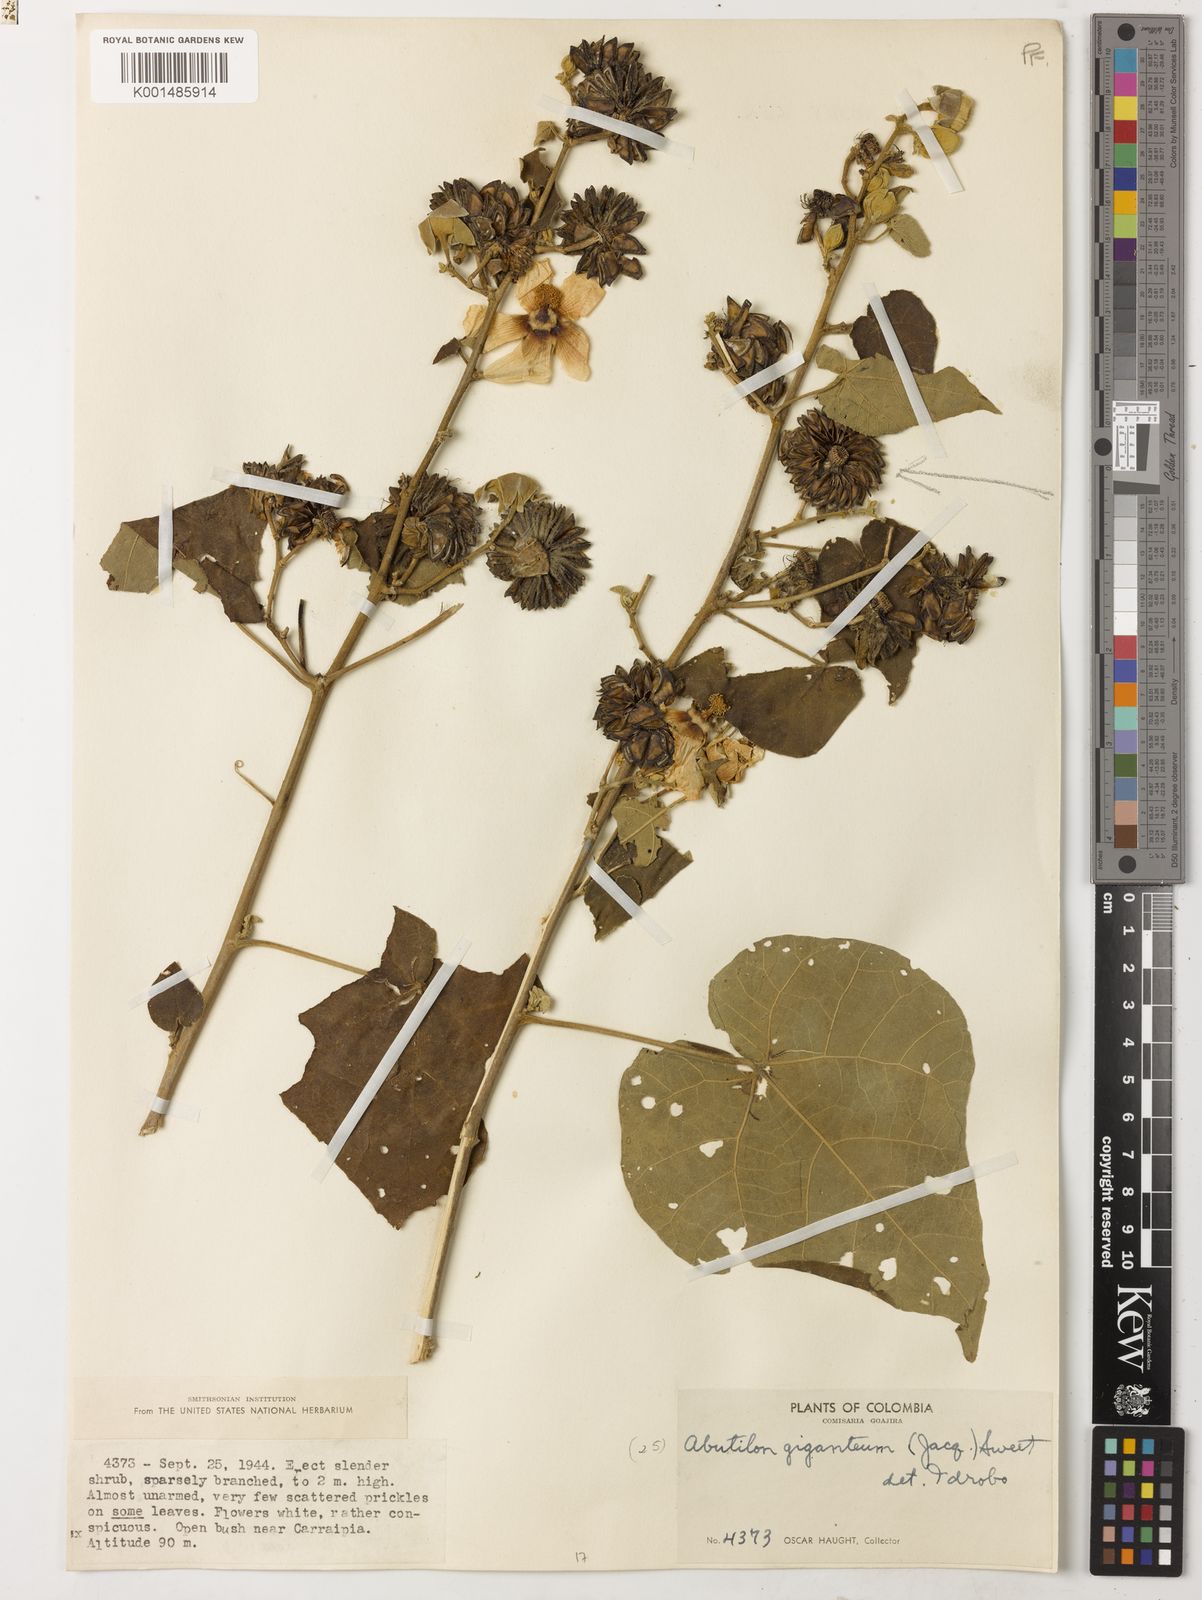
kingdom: Plantae
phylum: Tracheophyta
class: Magnoliopsida
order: Malvales
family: Malvaceae
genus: Abutilon
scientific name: Abutilon giganteum
